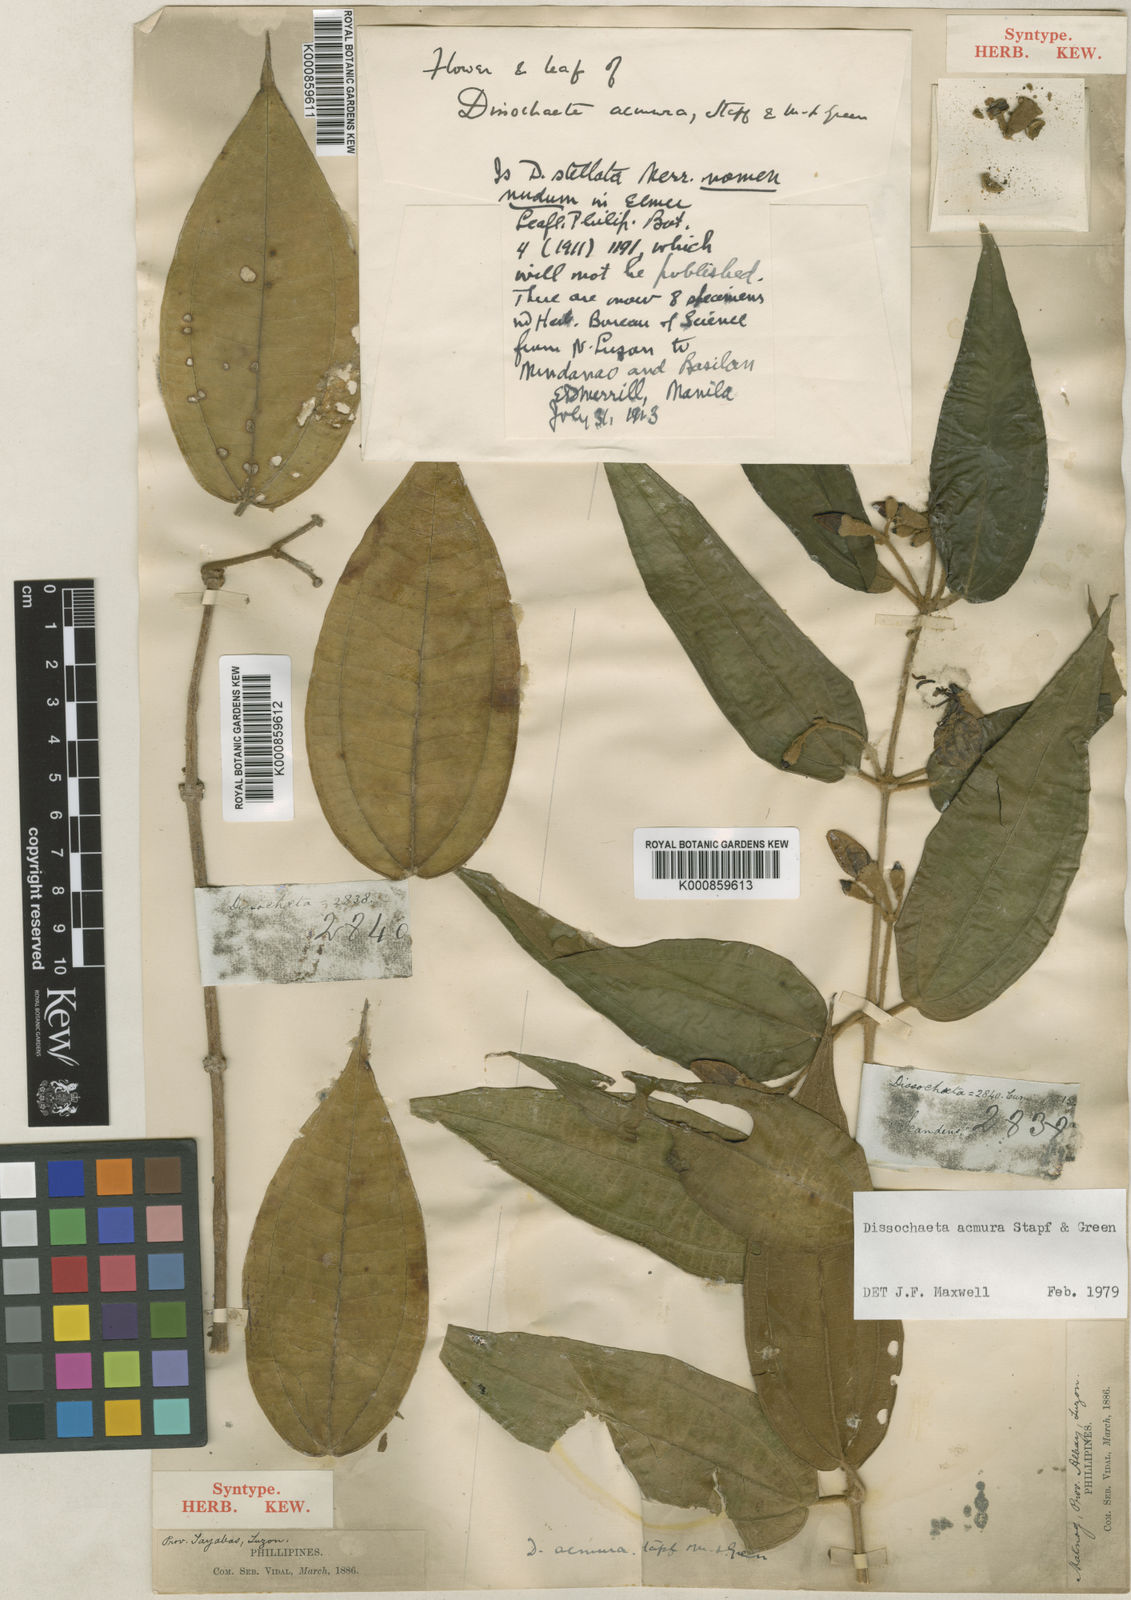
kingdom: Plantae
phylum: Tracheophyta
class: Magnoliopsida
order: Myrtales
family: Melastomataceae
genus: Dissochaeta
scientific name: Dissochaeta acmura
